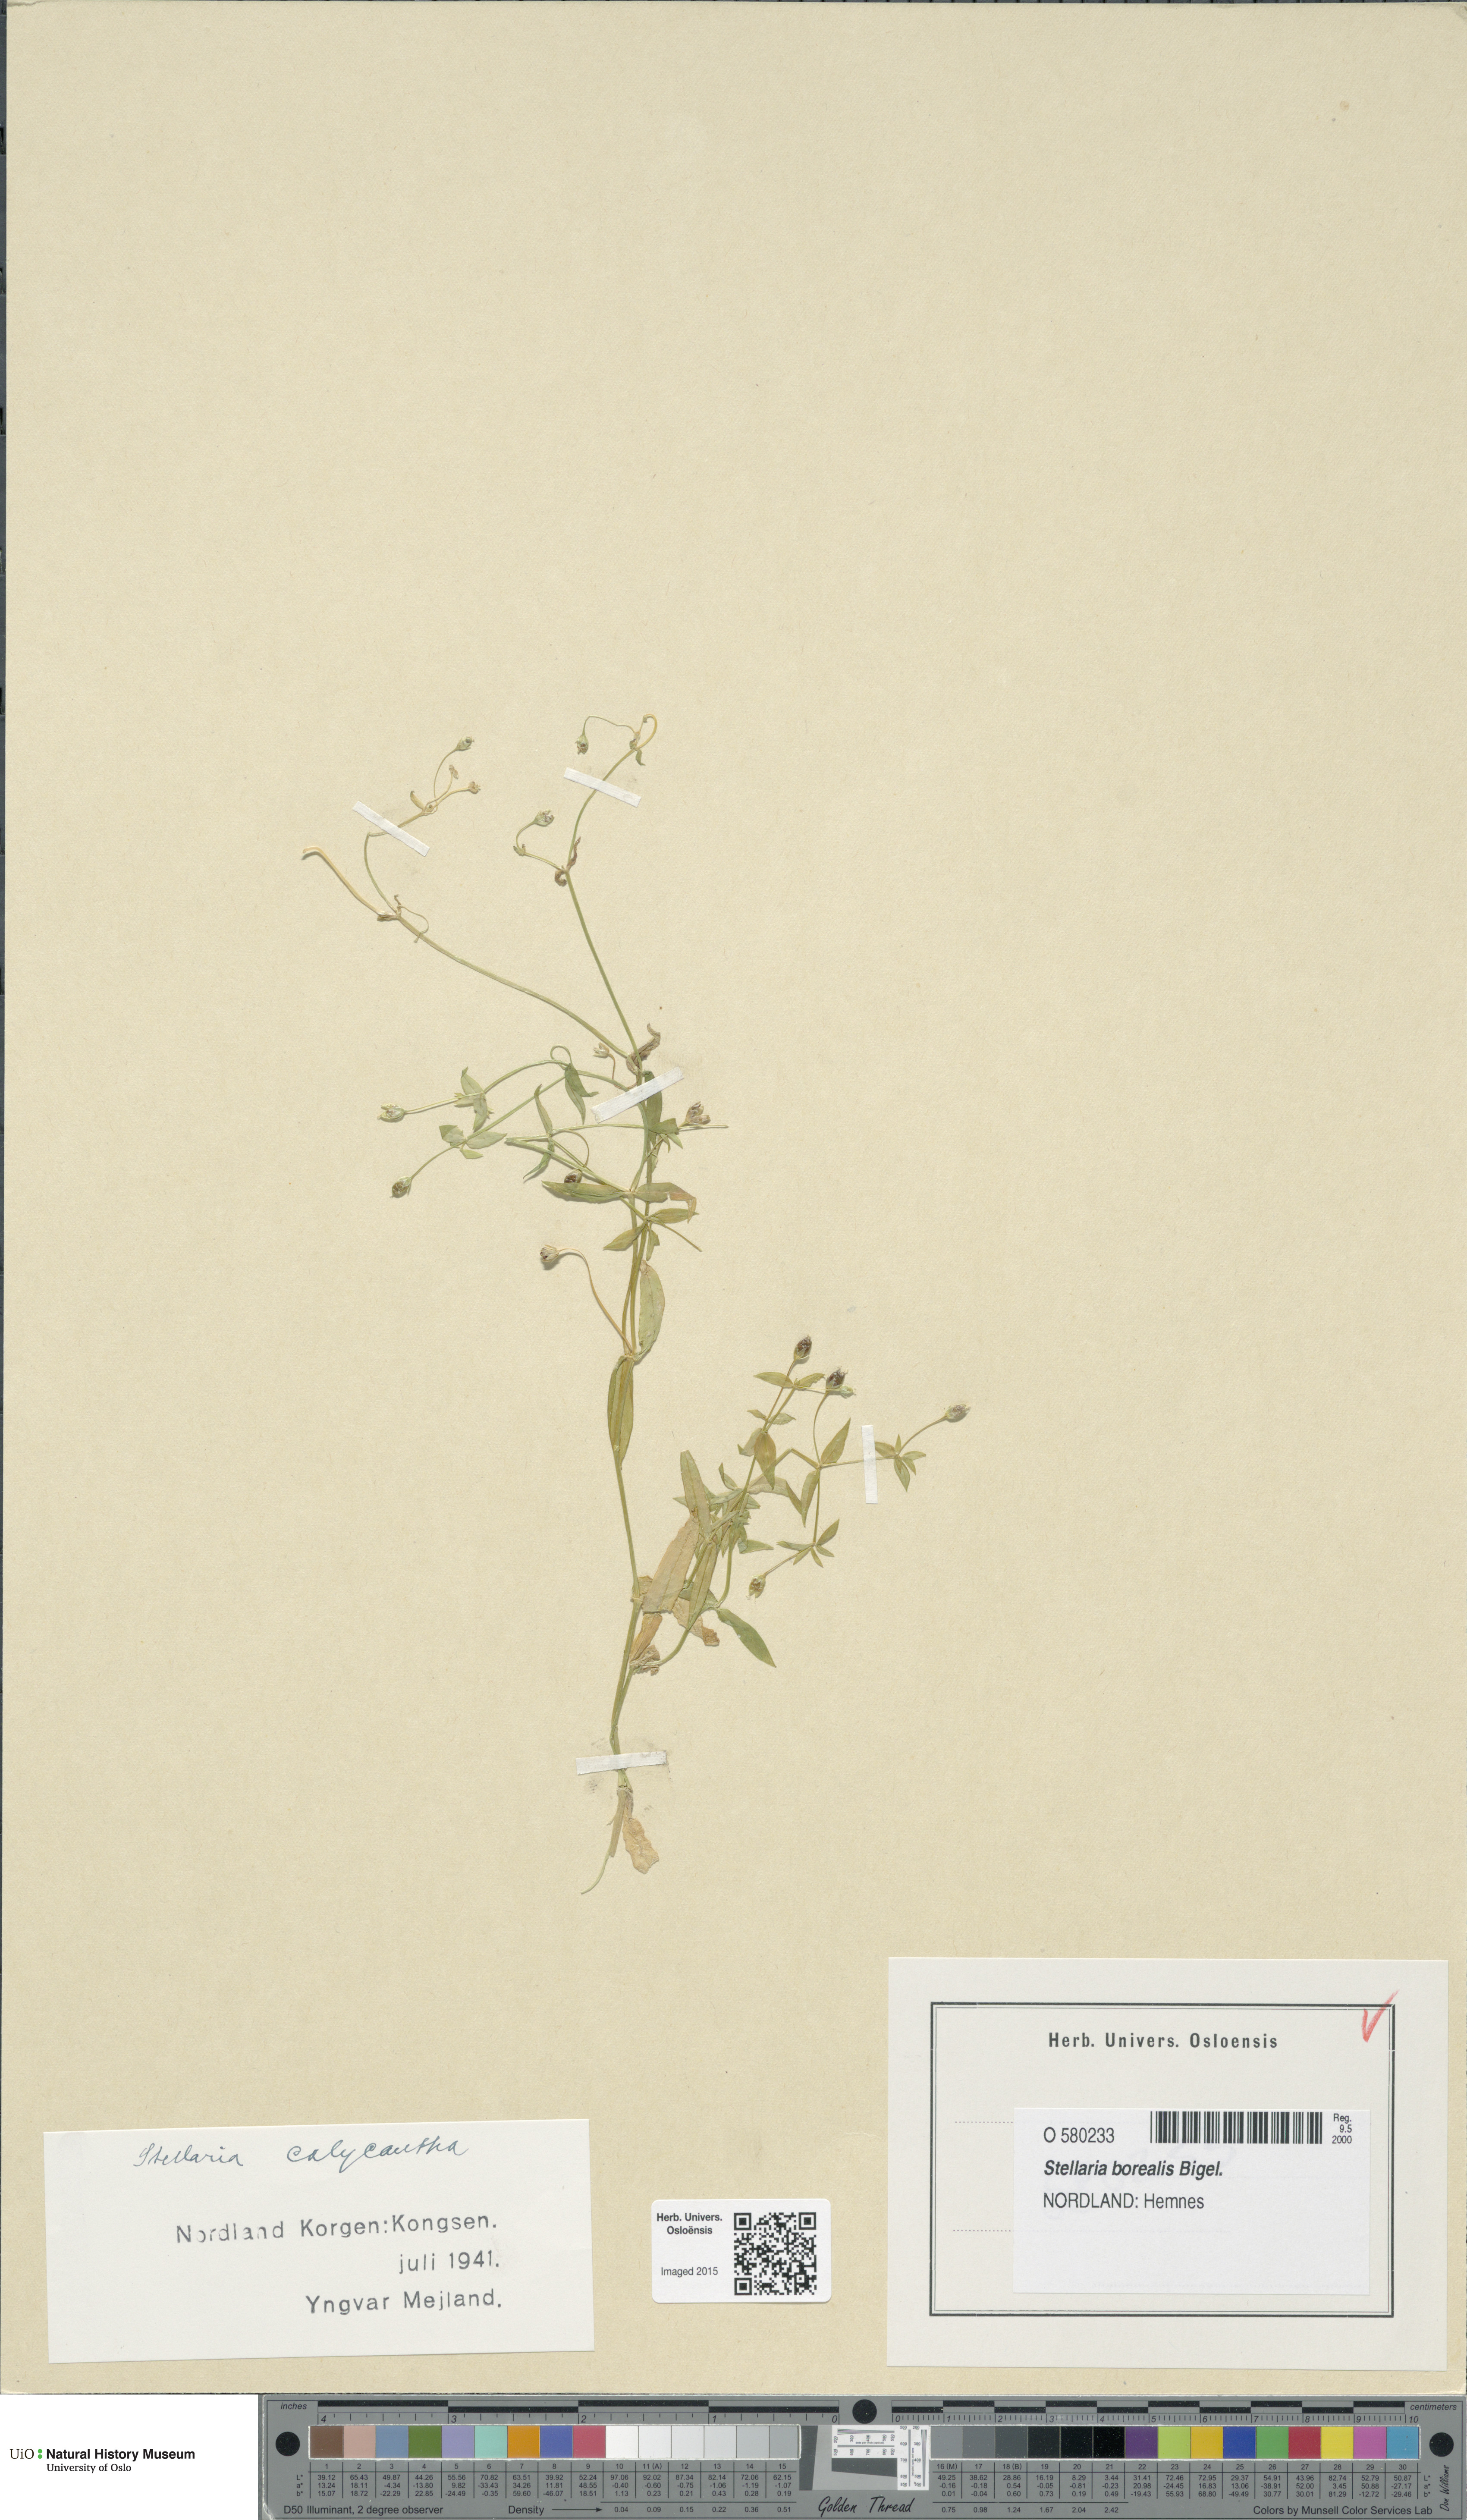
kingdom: Plantae
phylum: Tracheophyta
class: Magnoliopsida
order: Caryophyllales
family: Caryophyllaceae
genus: Stellaria
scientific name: Stellaria borealis
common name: Boreal starwort
